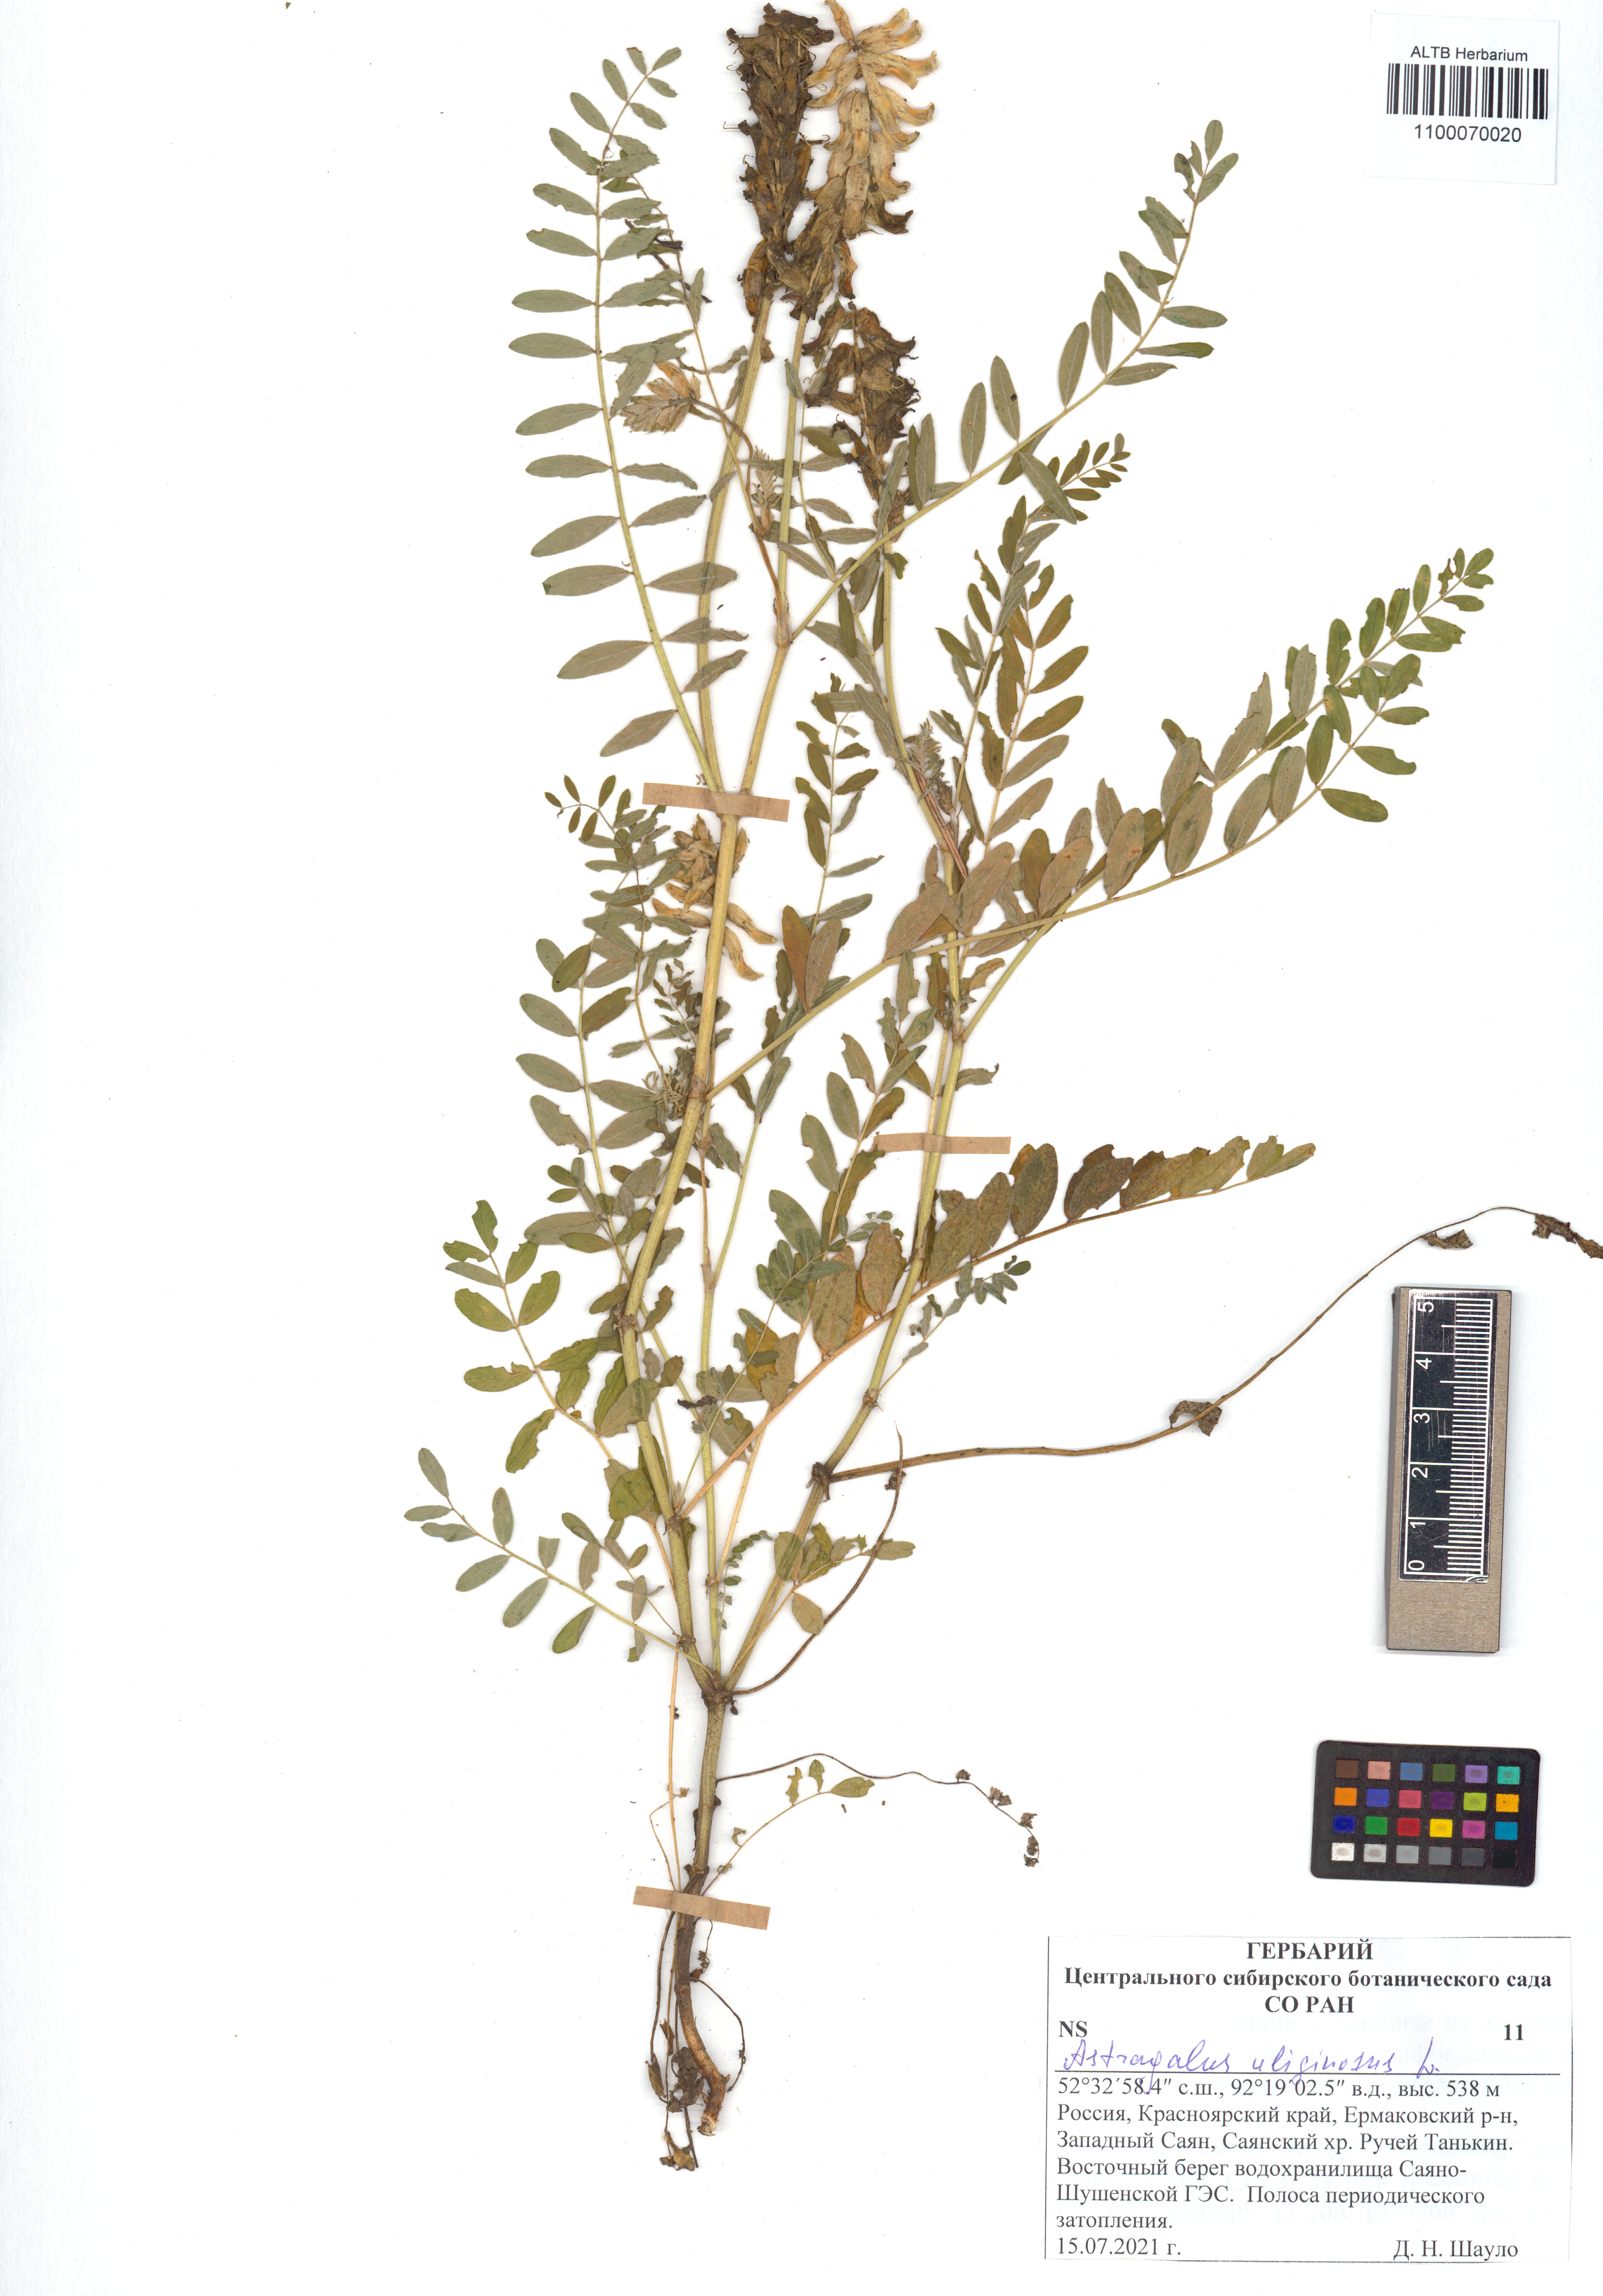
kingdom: Plantae
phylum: Tracheophyta
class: Magnoliopsida
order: Fabales
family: Fabaceae
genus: Astragalus
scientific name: Astragalus uliginosus
